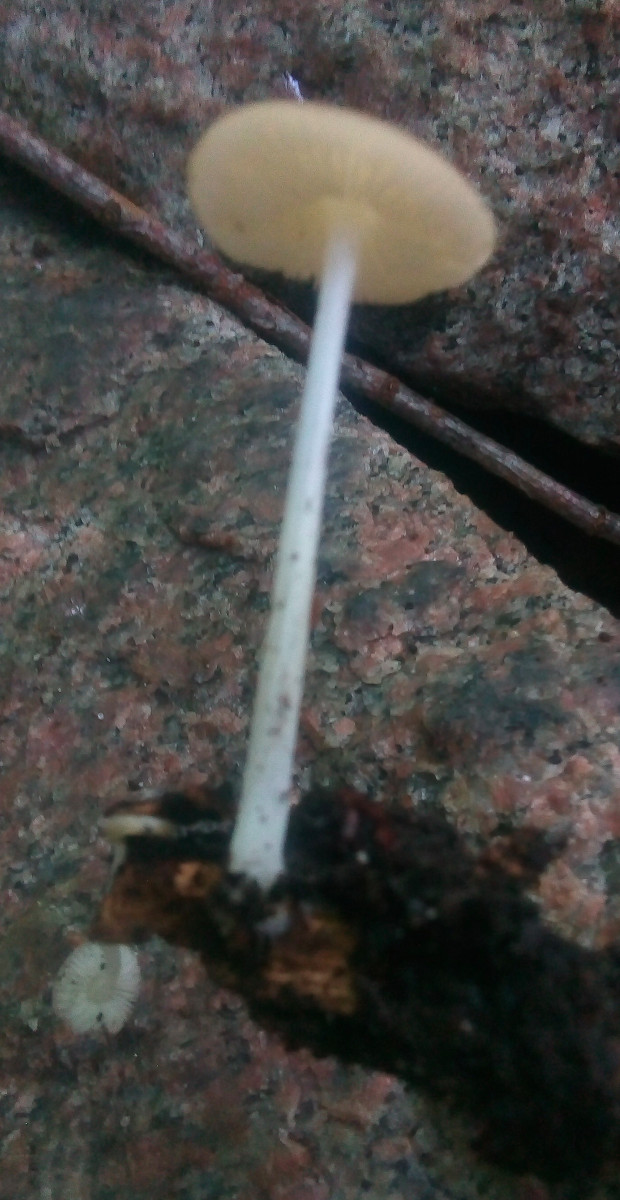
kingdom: Fungi
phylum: Basidiomycota
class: Agaricomycetes
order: Agaricales
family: Porotheleaceae
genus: Hydropodia
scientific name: Hydropodia subalpina
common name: vår-fnugfod
